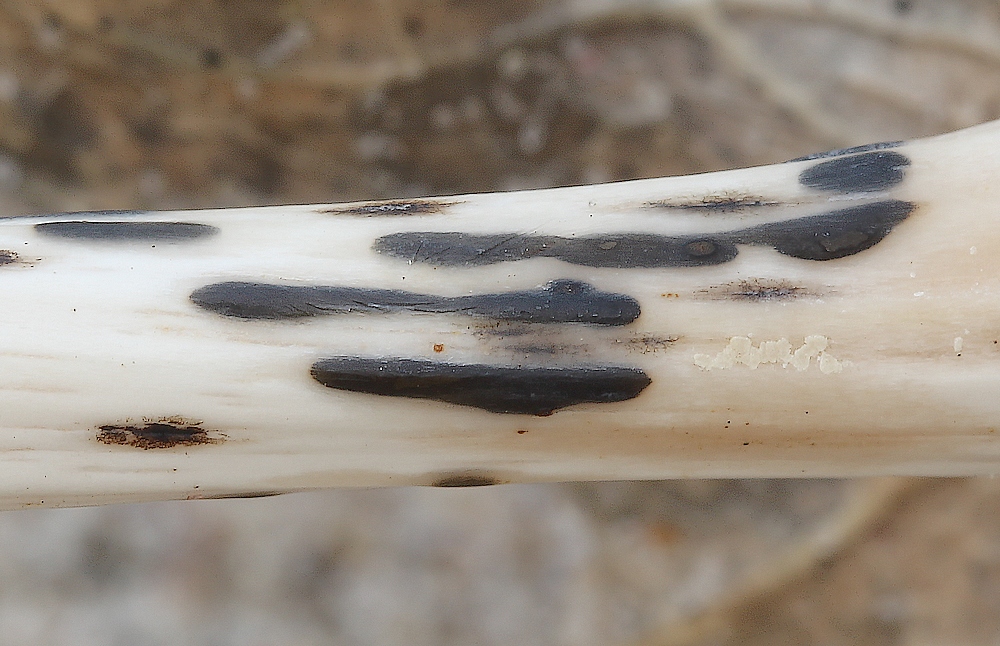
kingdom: Fungi
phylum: Basidiomycota
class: Agaricomycetes
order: Agaricales
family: Typhulaceae
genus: Sclerotium
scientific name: Sclerotium
